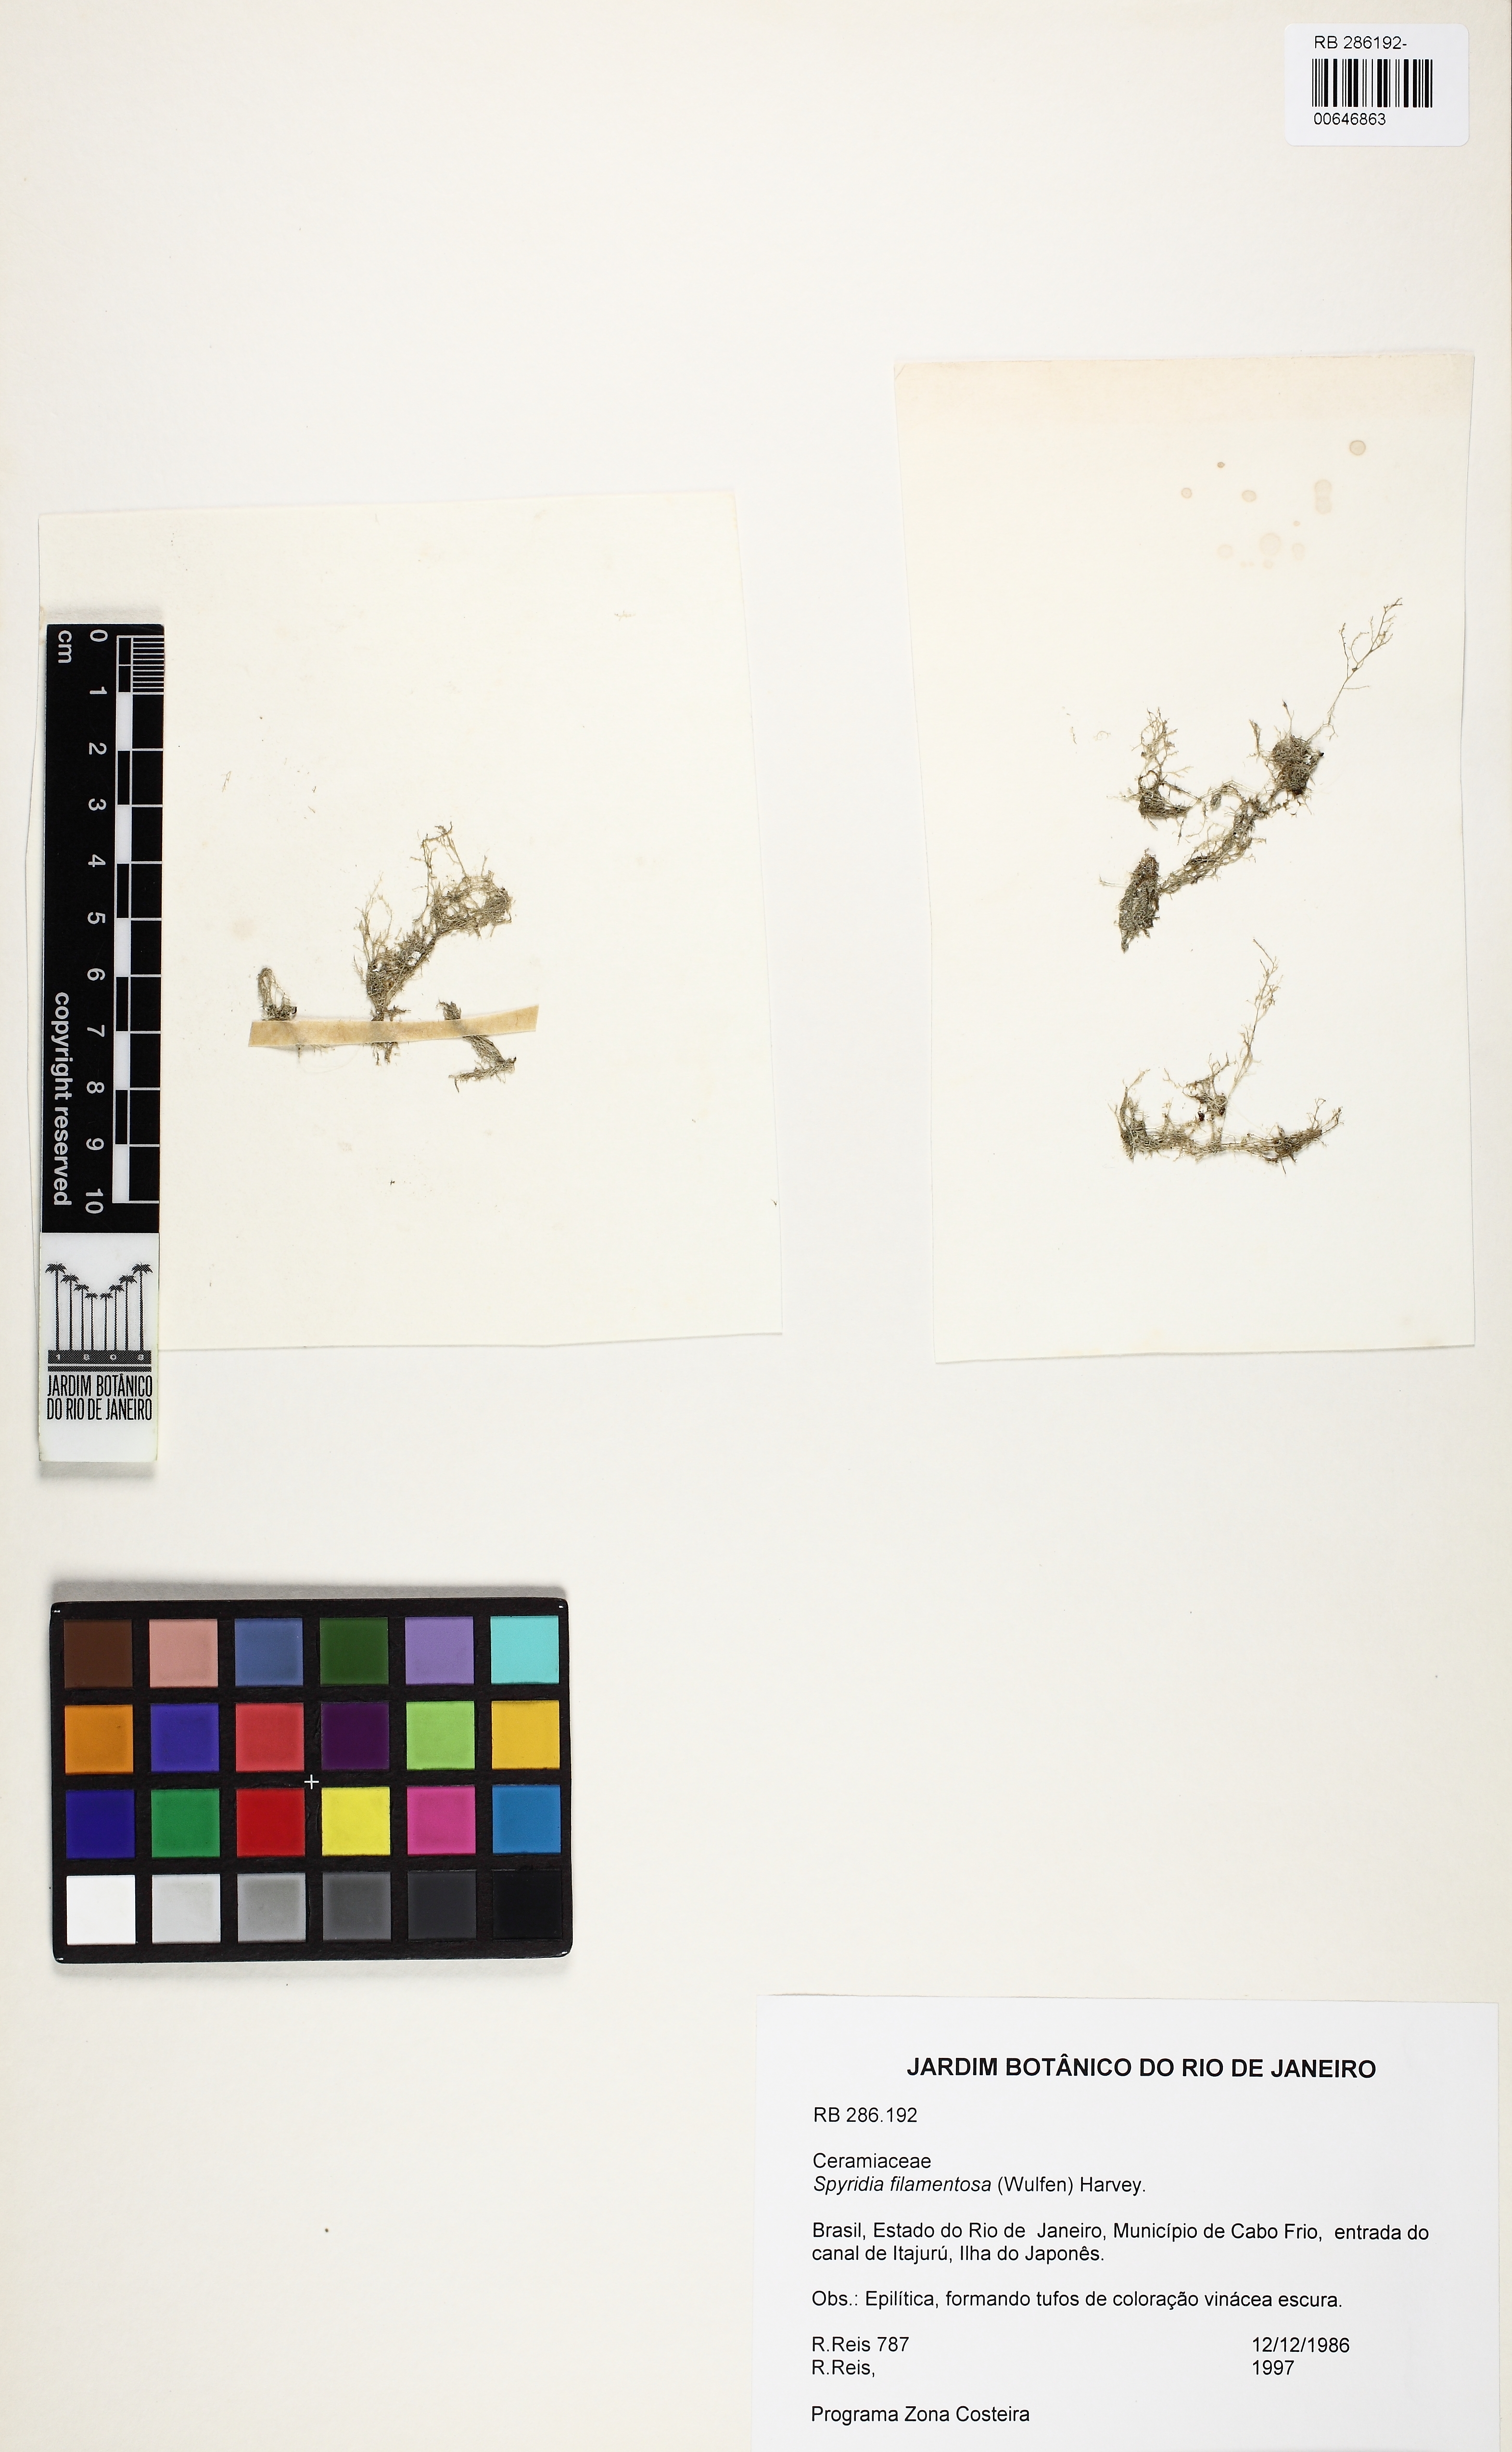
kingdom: Plantae
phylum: Rhodophyta
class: Florideophyceae
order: Ceramiales
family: Spyridiaceae
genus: Spyridia
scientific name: Spyridia filamentosa
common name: Red algae
